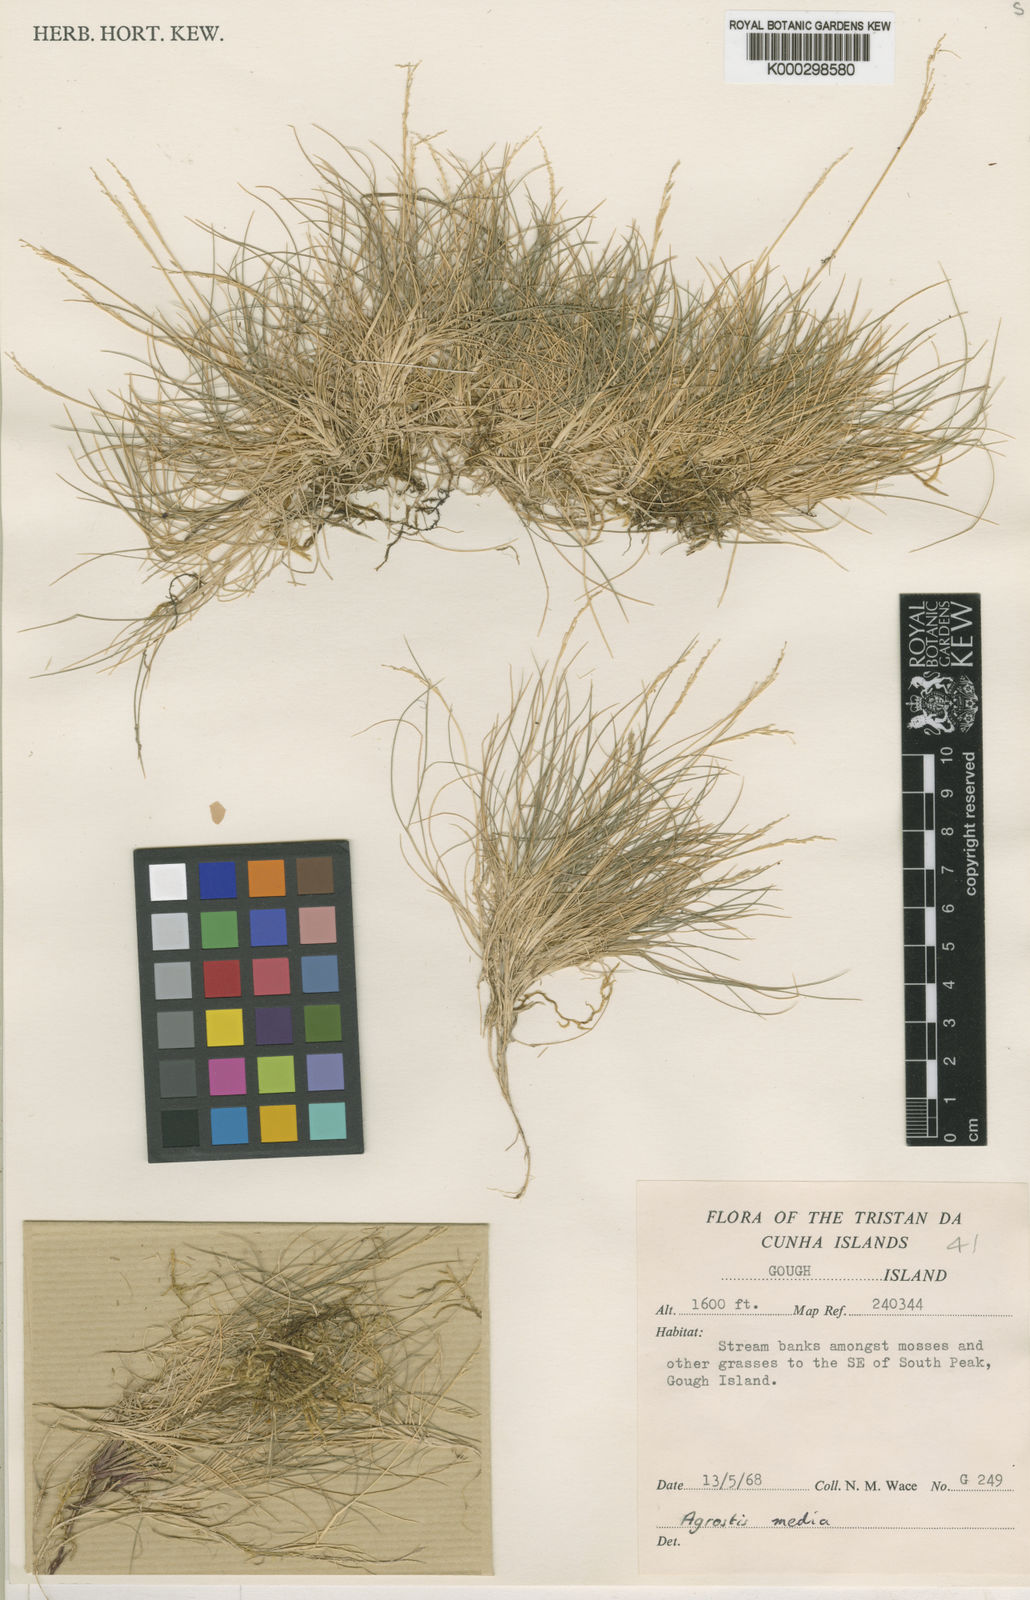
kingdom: Plantae
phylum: Tracheophyta
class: Liliopsida
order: Poales
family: Poaceae
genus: Agrostis
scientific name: Agrostis media
